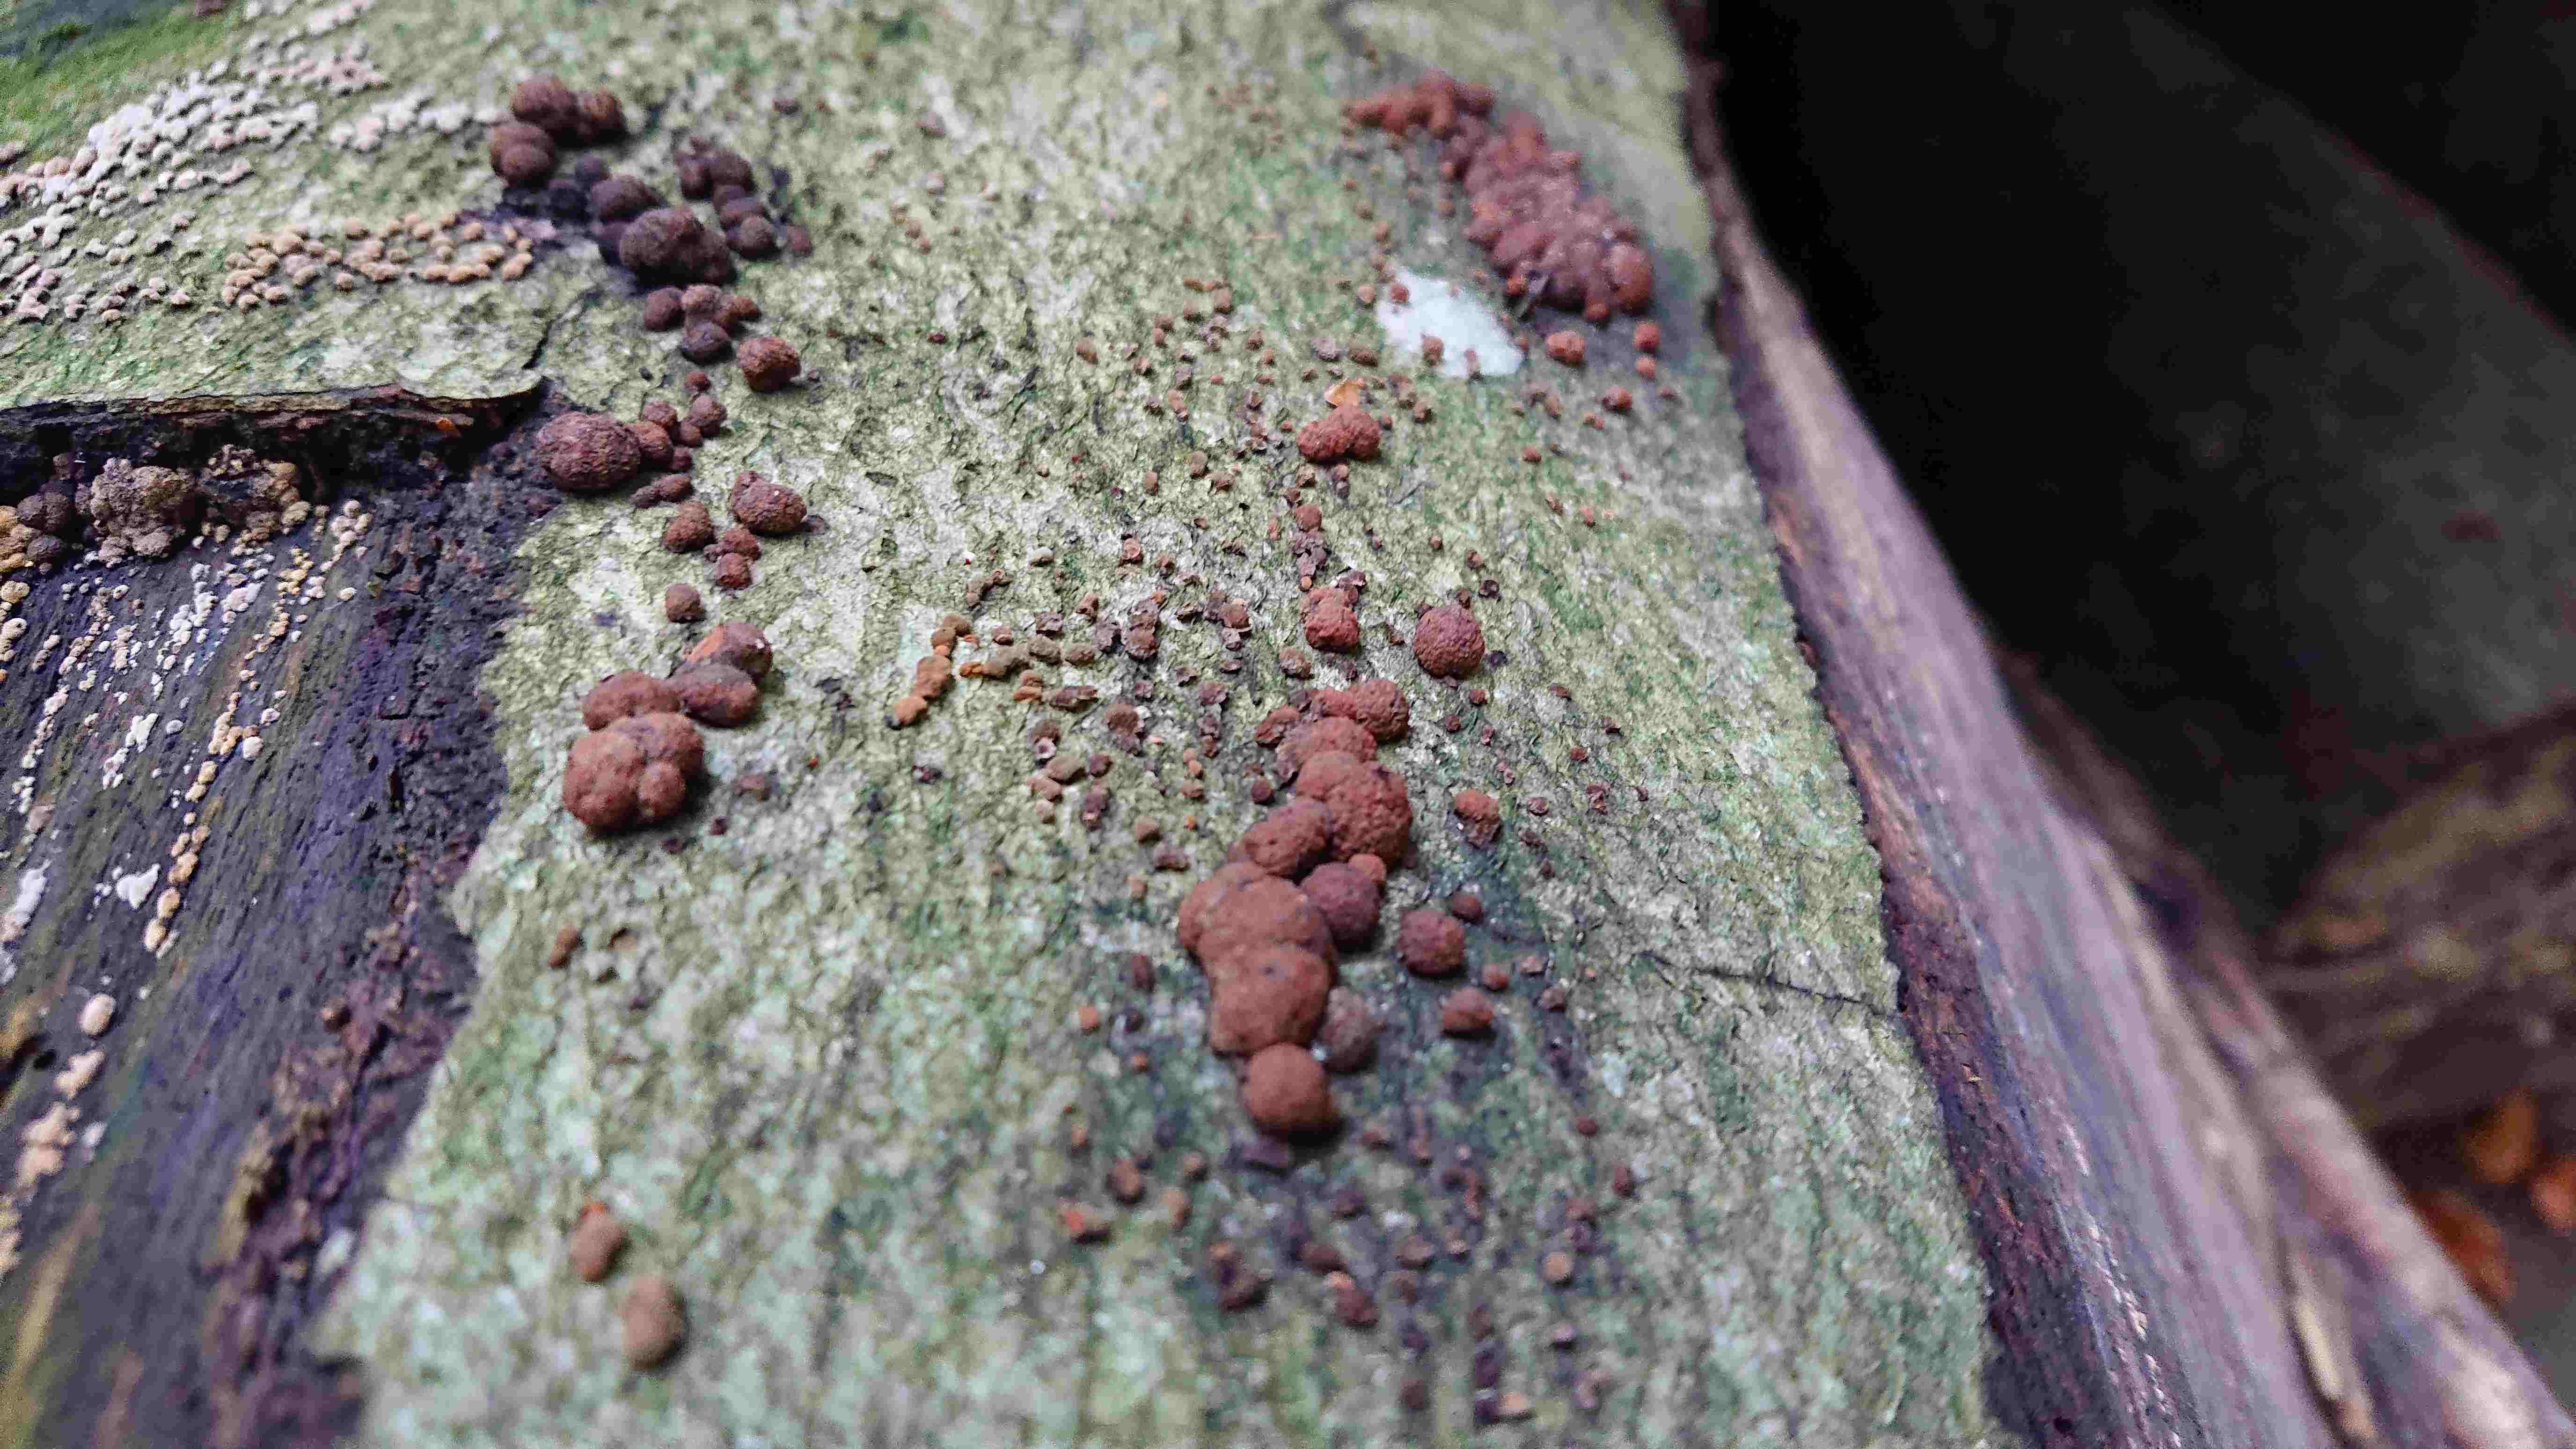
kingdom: Fungi
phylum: Ascomycota
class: Sordariomycetes
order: Xylariales
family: Hypoxylaceae
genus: Hypoxylon
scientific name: Hypoxylon fragiforme
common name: kuljordbær
